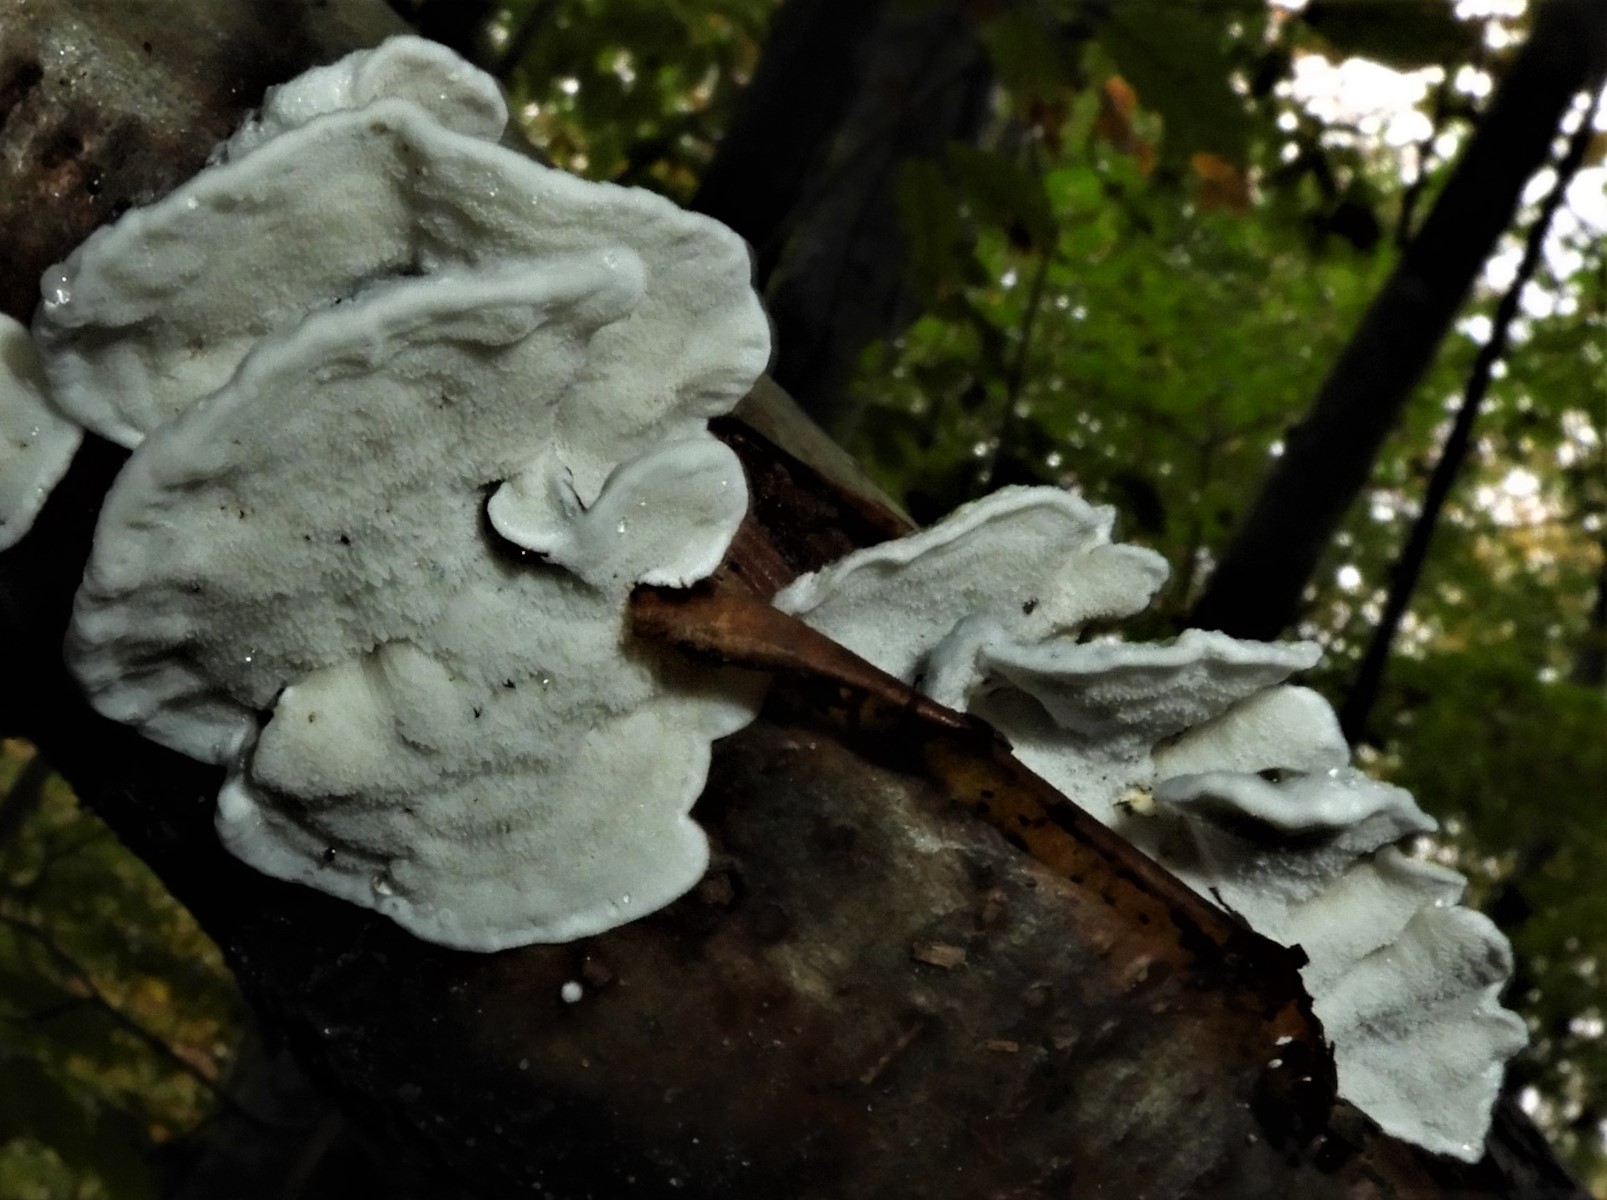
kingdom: Fungi
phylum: Basidiomycota
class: Agaricomycetes
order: Polyporales
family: Polyporaceae
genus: Cyanosporus
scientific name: Cyanosporus alni
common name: blegblå kødporesvamp
